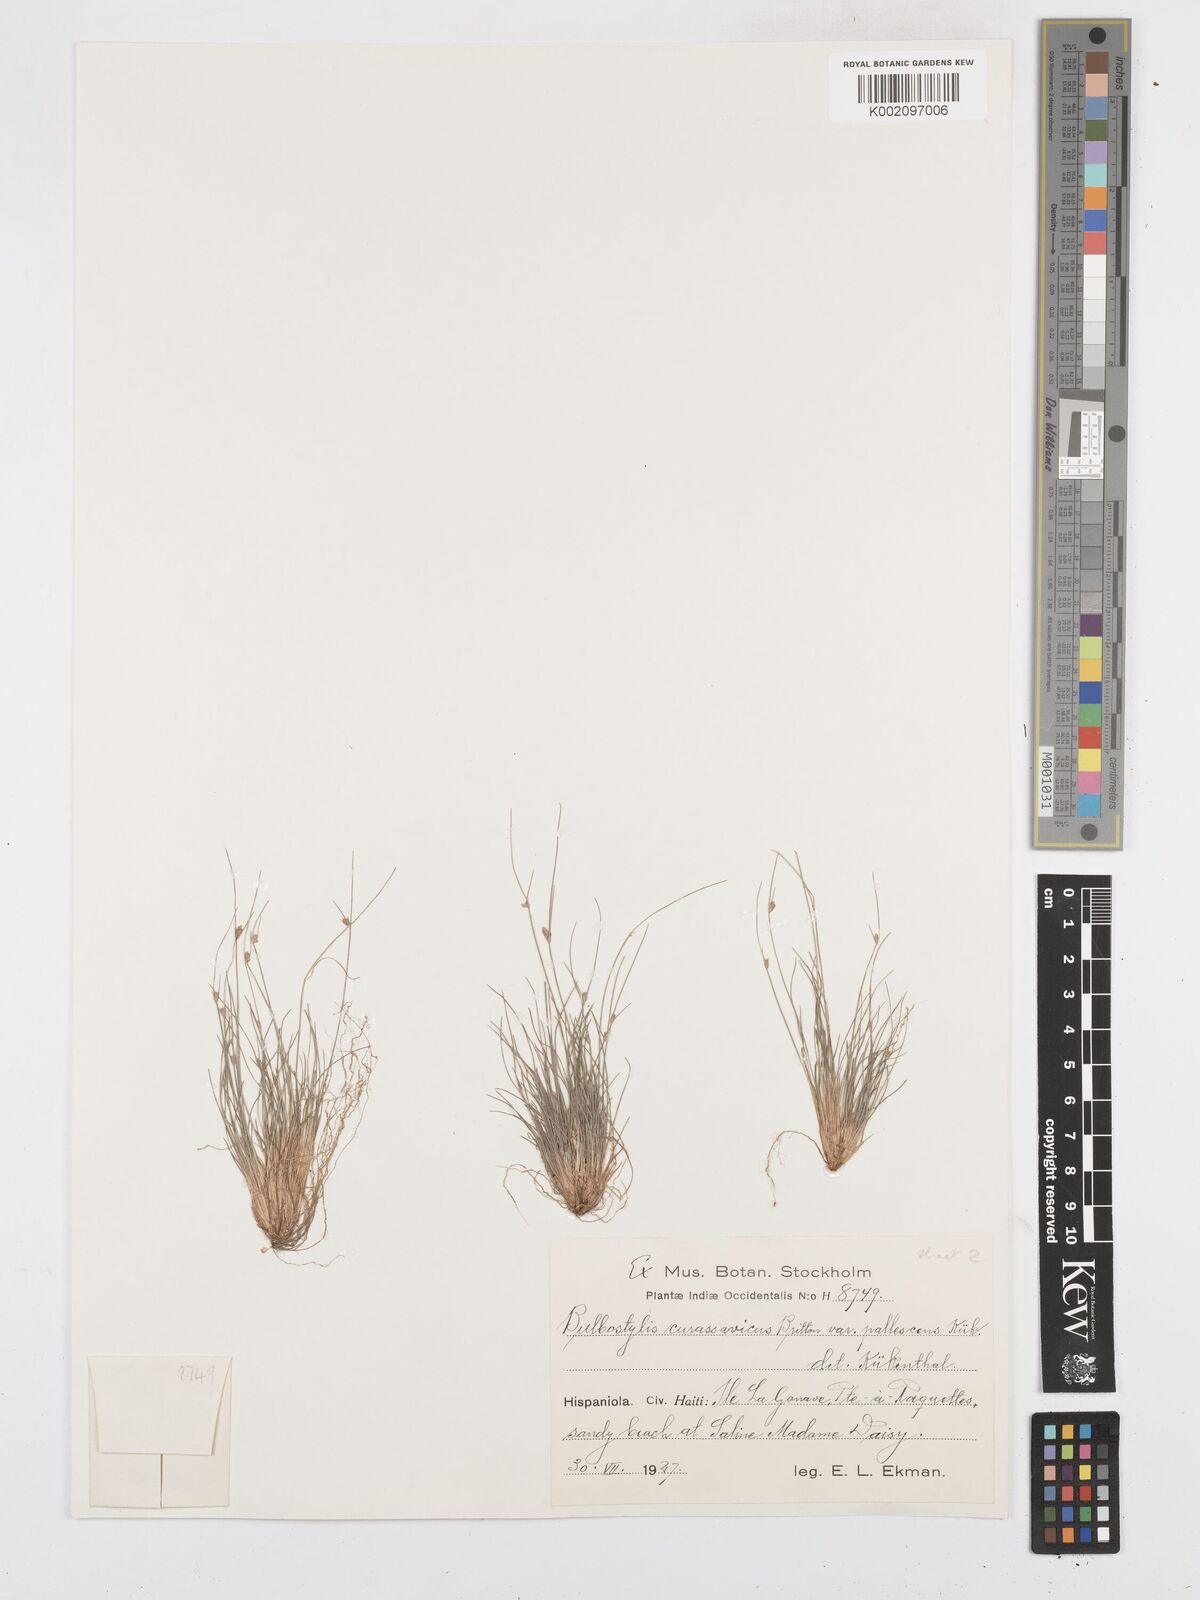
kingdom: Plantae
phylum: Tracheophyta
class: Liliopsida
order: Poales
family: Cyperaceae
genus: Bulbostylis
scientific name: Bulbostylis curassavica
